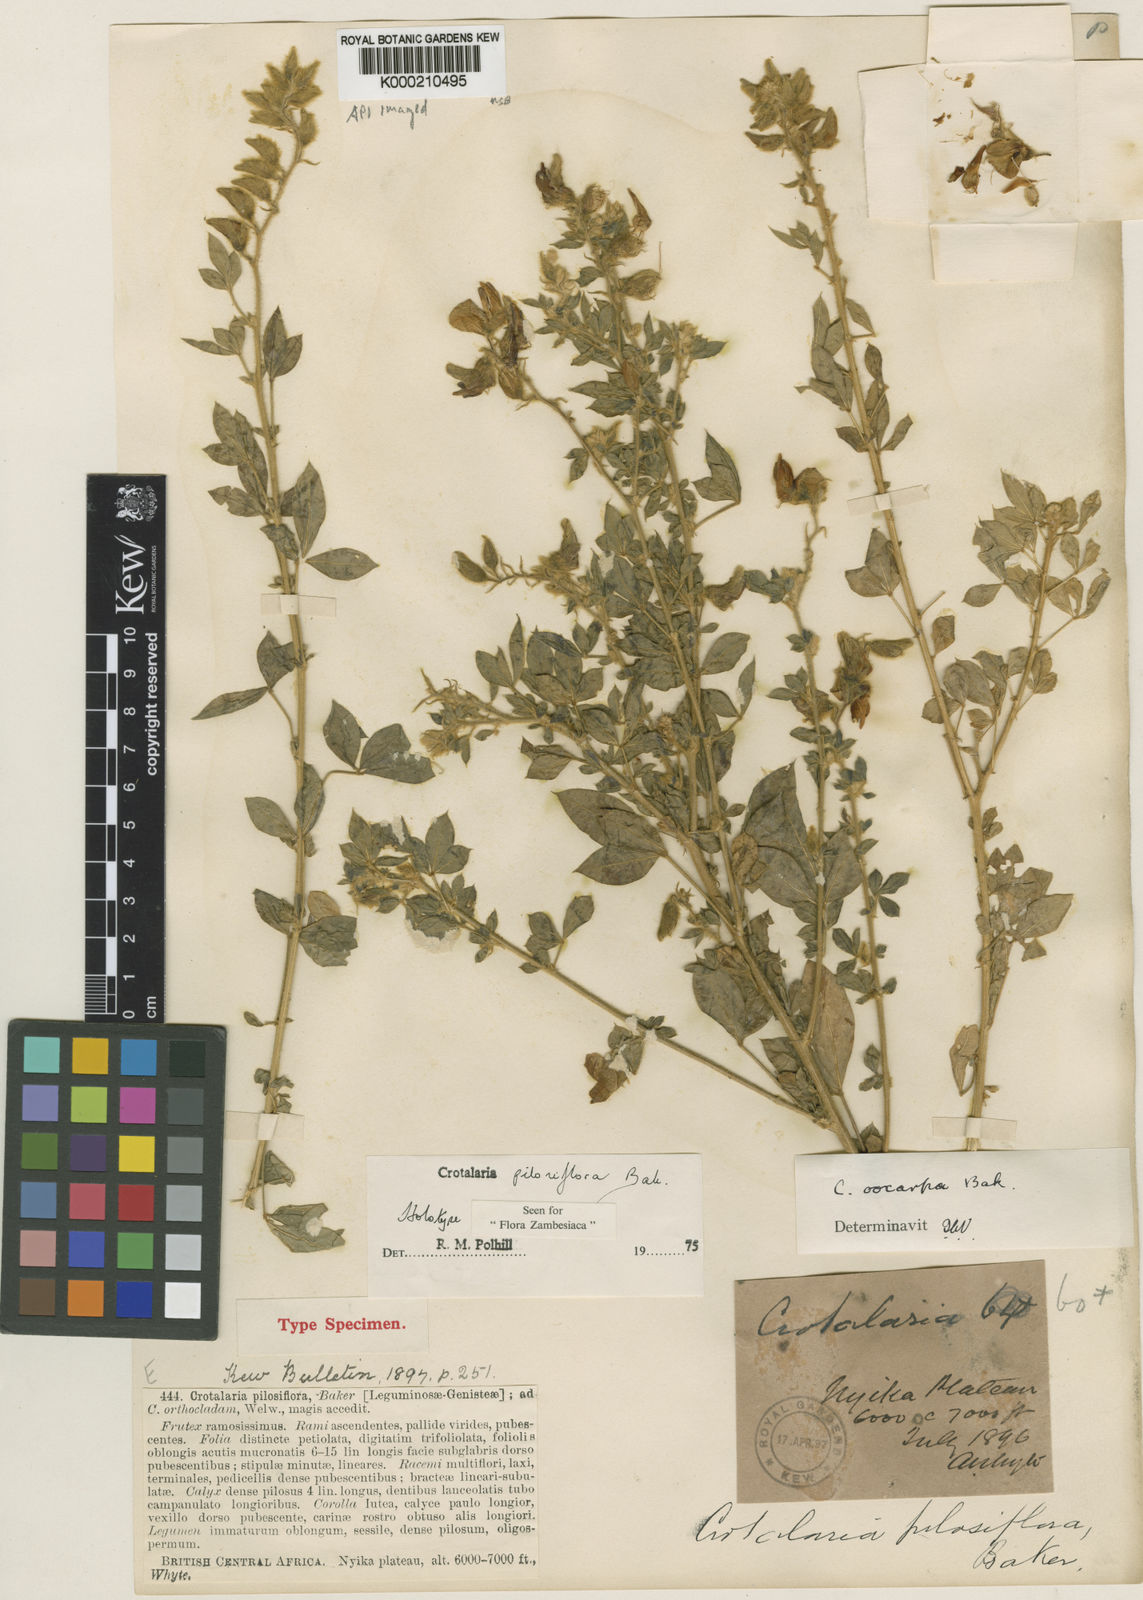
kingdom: Plantae
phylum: Tracheophyta
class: Magnoliopsida
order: Fabales
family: Fabaceae
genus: Crotalaria
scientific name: Crotalaria pilosiflora
